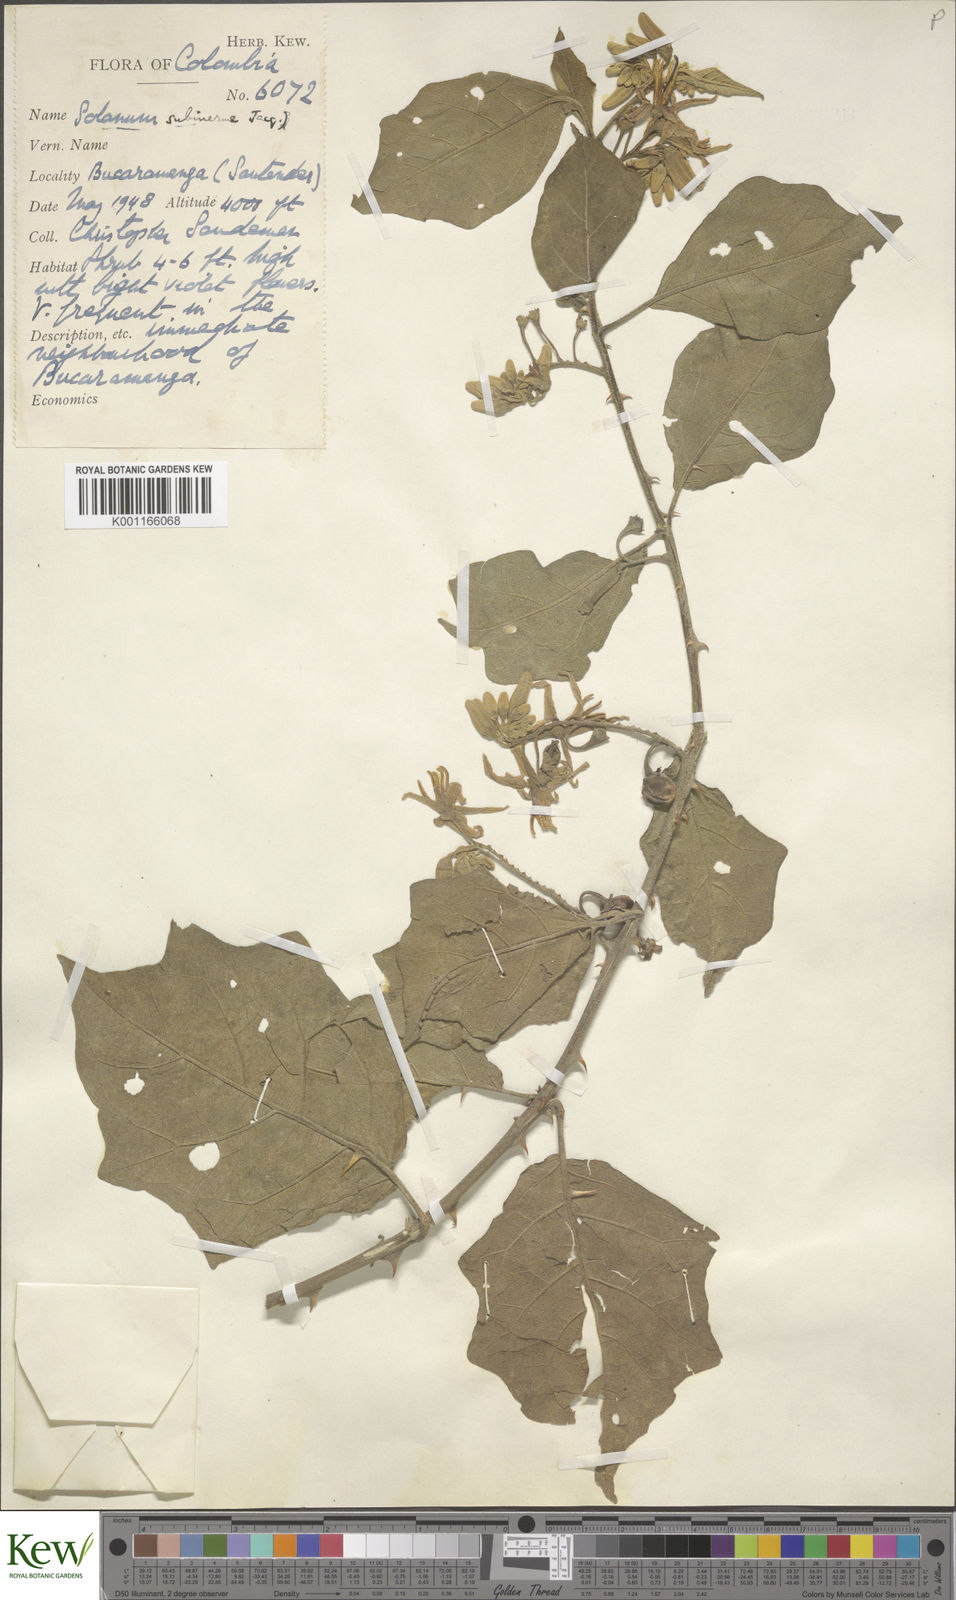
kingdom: Plantae
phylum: Tracheophyta
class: Magnoliopsida
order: Solanales
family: Solanaceae
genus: Solanum
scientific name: Solanum subinerme
